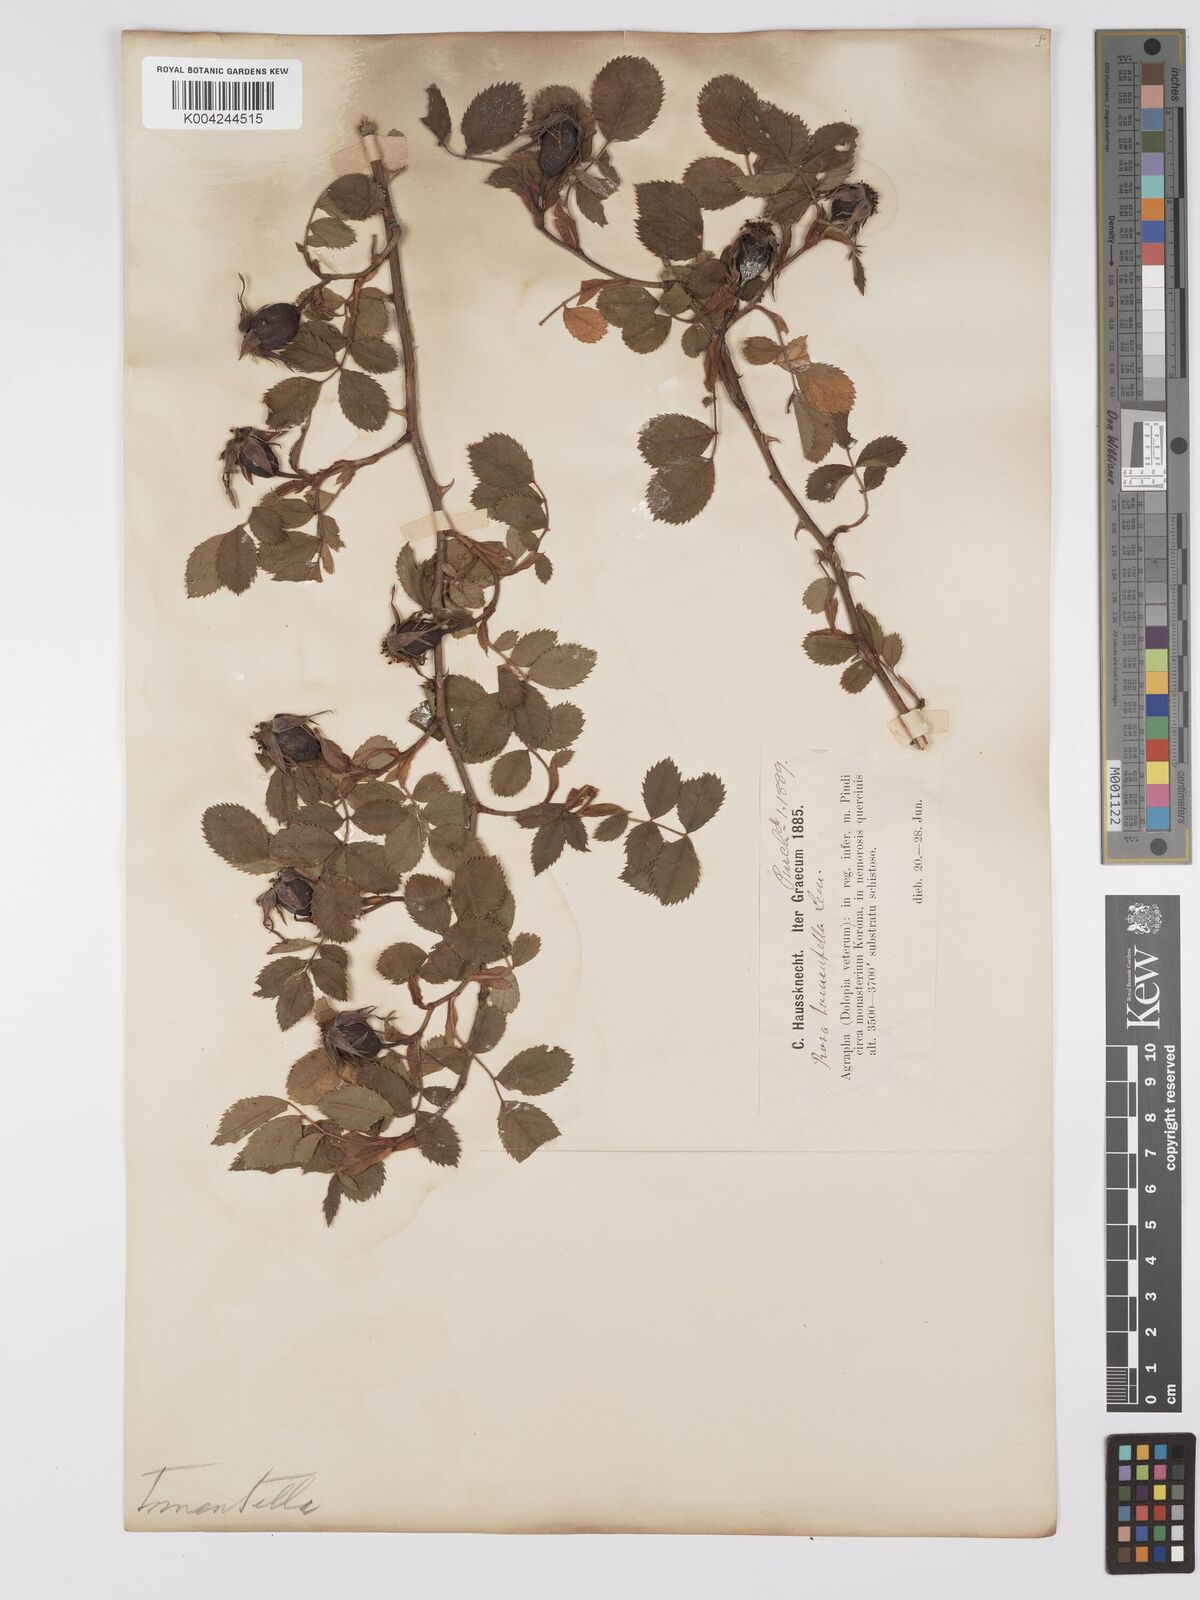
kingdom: Plantae
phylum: Tracheophyta
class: Magnoliopsida
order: Rosales
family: Rosaceae
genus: Rosa
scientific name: Rosa obtusifolia
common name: Round-leaved dog-rose
